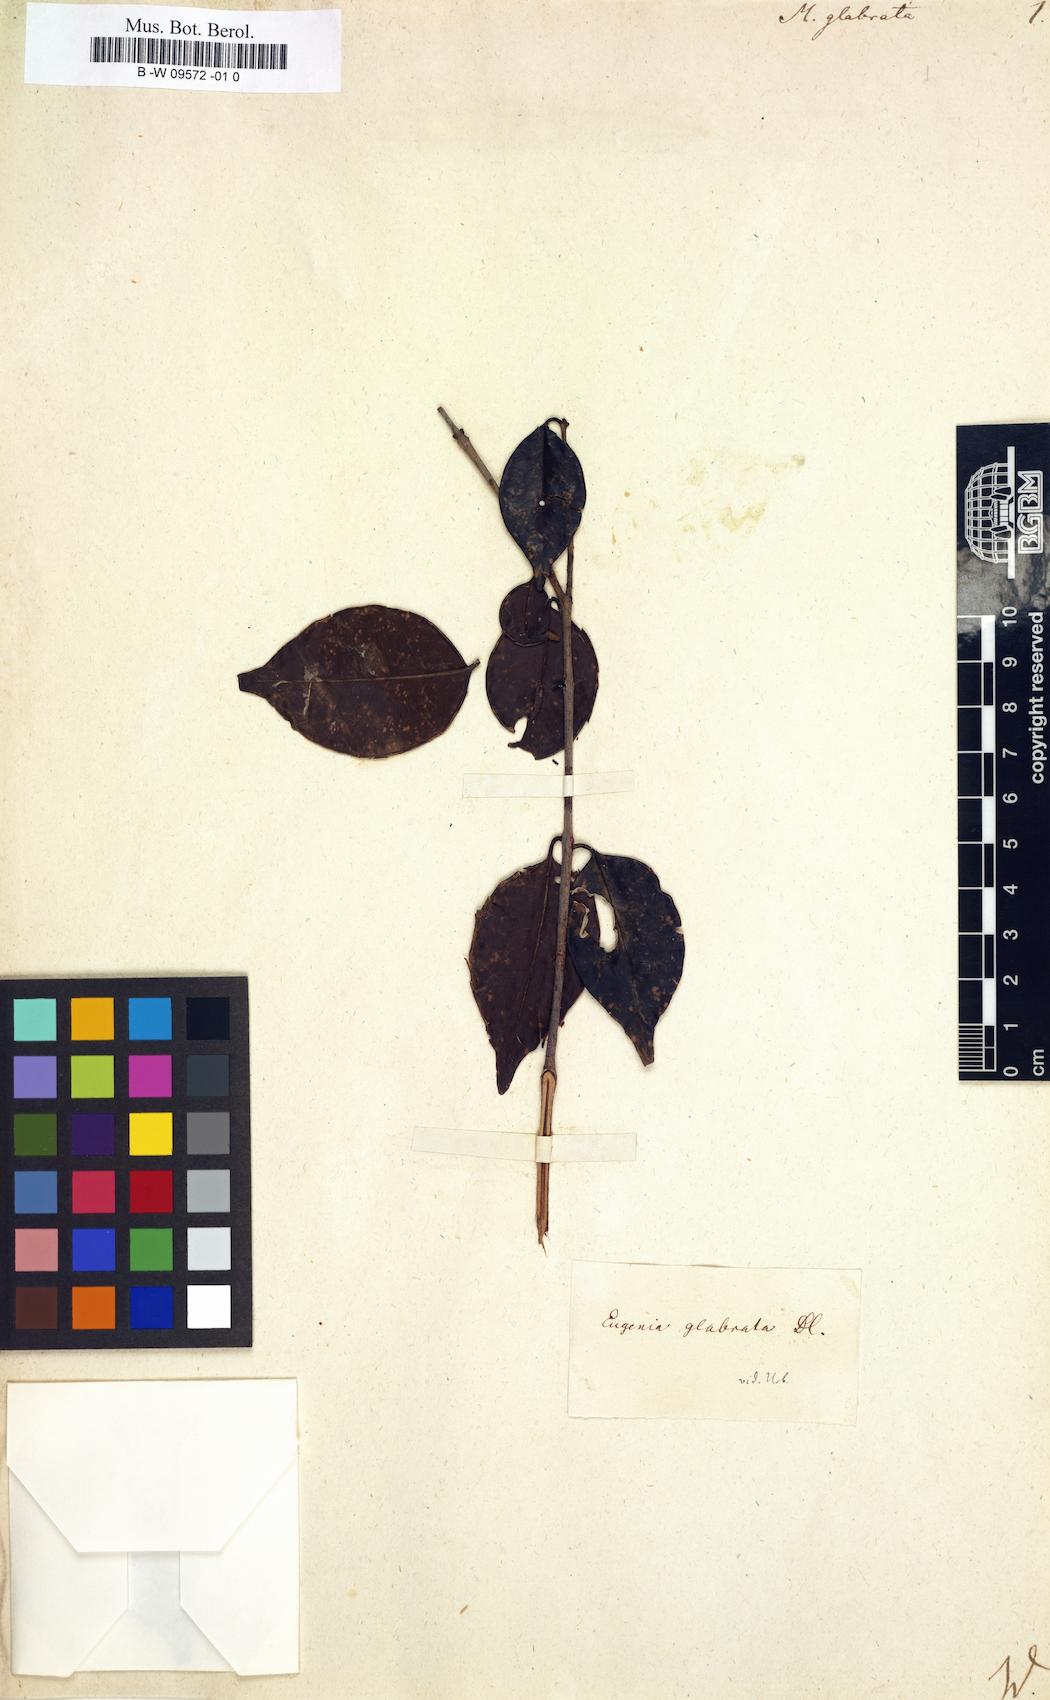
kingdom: Plantae
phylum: Tracheophyta
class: Magnoliopsida
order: Myrtales
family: Myrtaceae
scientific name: Myrtaceae
